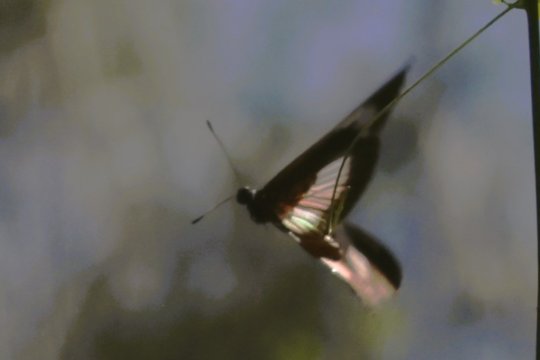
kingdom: Animalia
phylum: Arthropoda
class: Insecta
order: Lepidoptera
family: Nymphalidae
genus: Acraea
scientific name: Acraea aganice
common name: Wanderer
